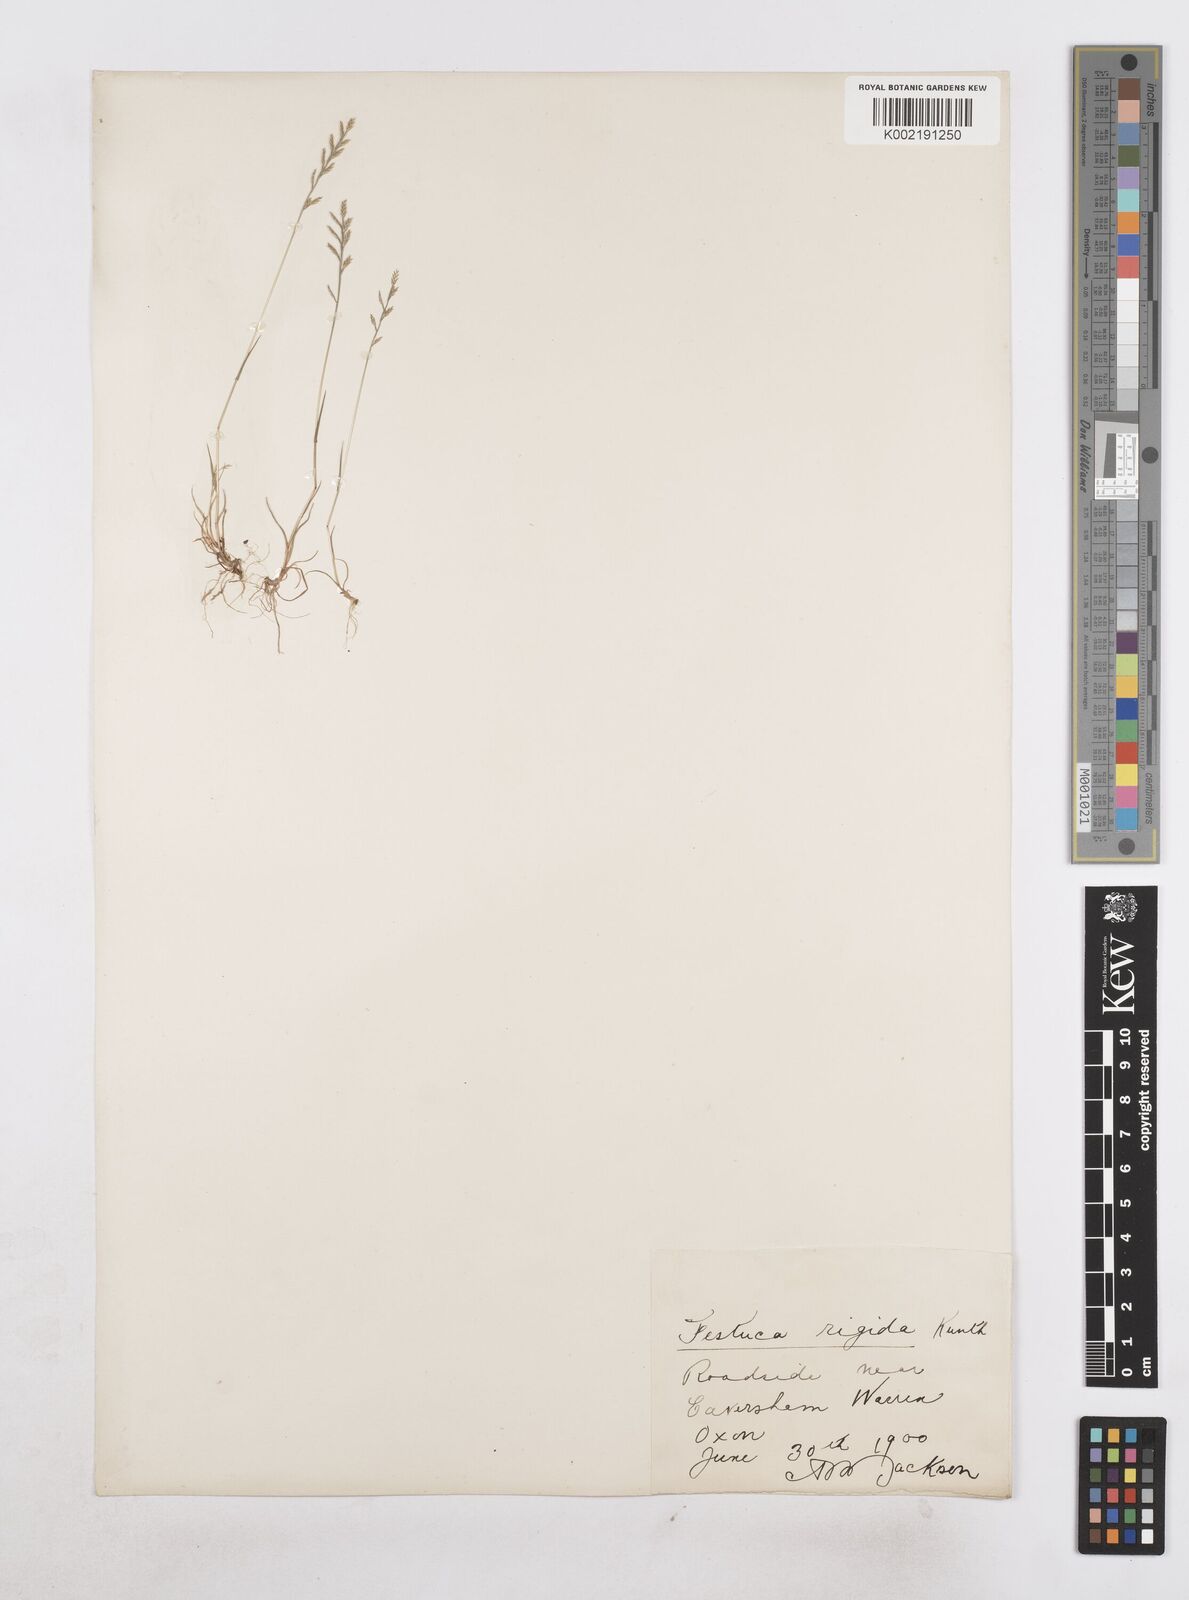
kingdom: Plantae
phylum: Tracheophyta
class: Liliopsida
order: Poales
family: Poaceae
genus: Catapodium
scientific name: Catapodium rigidum
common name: Fern-grass
